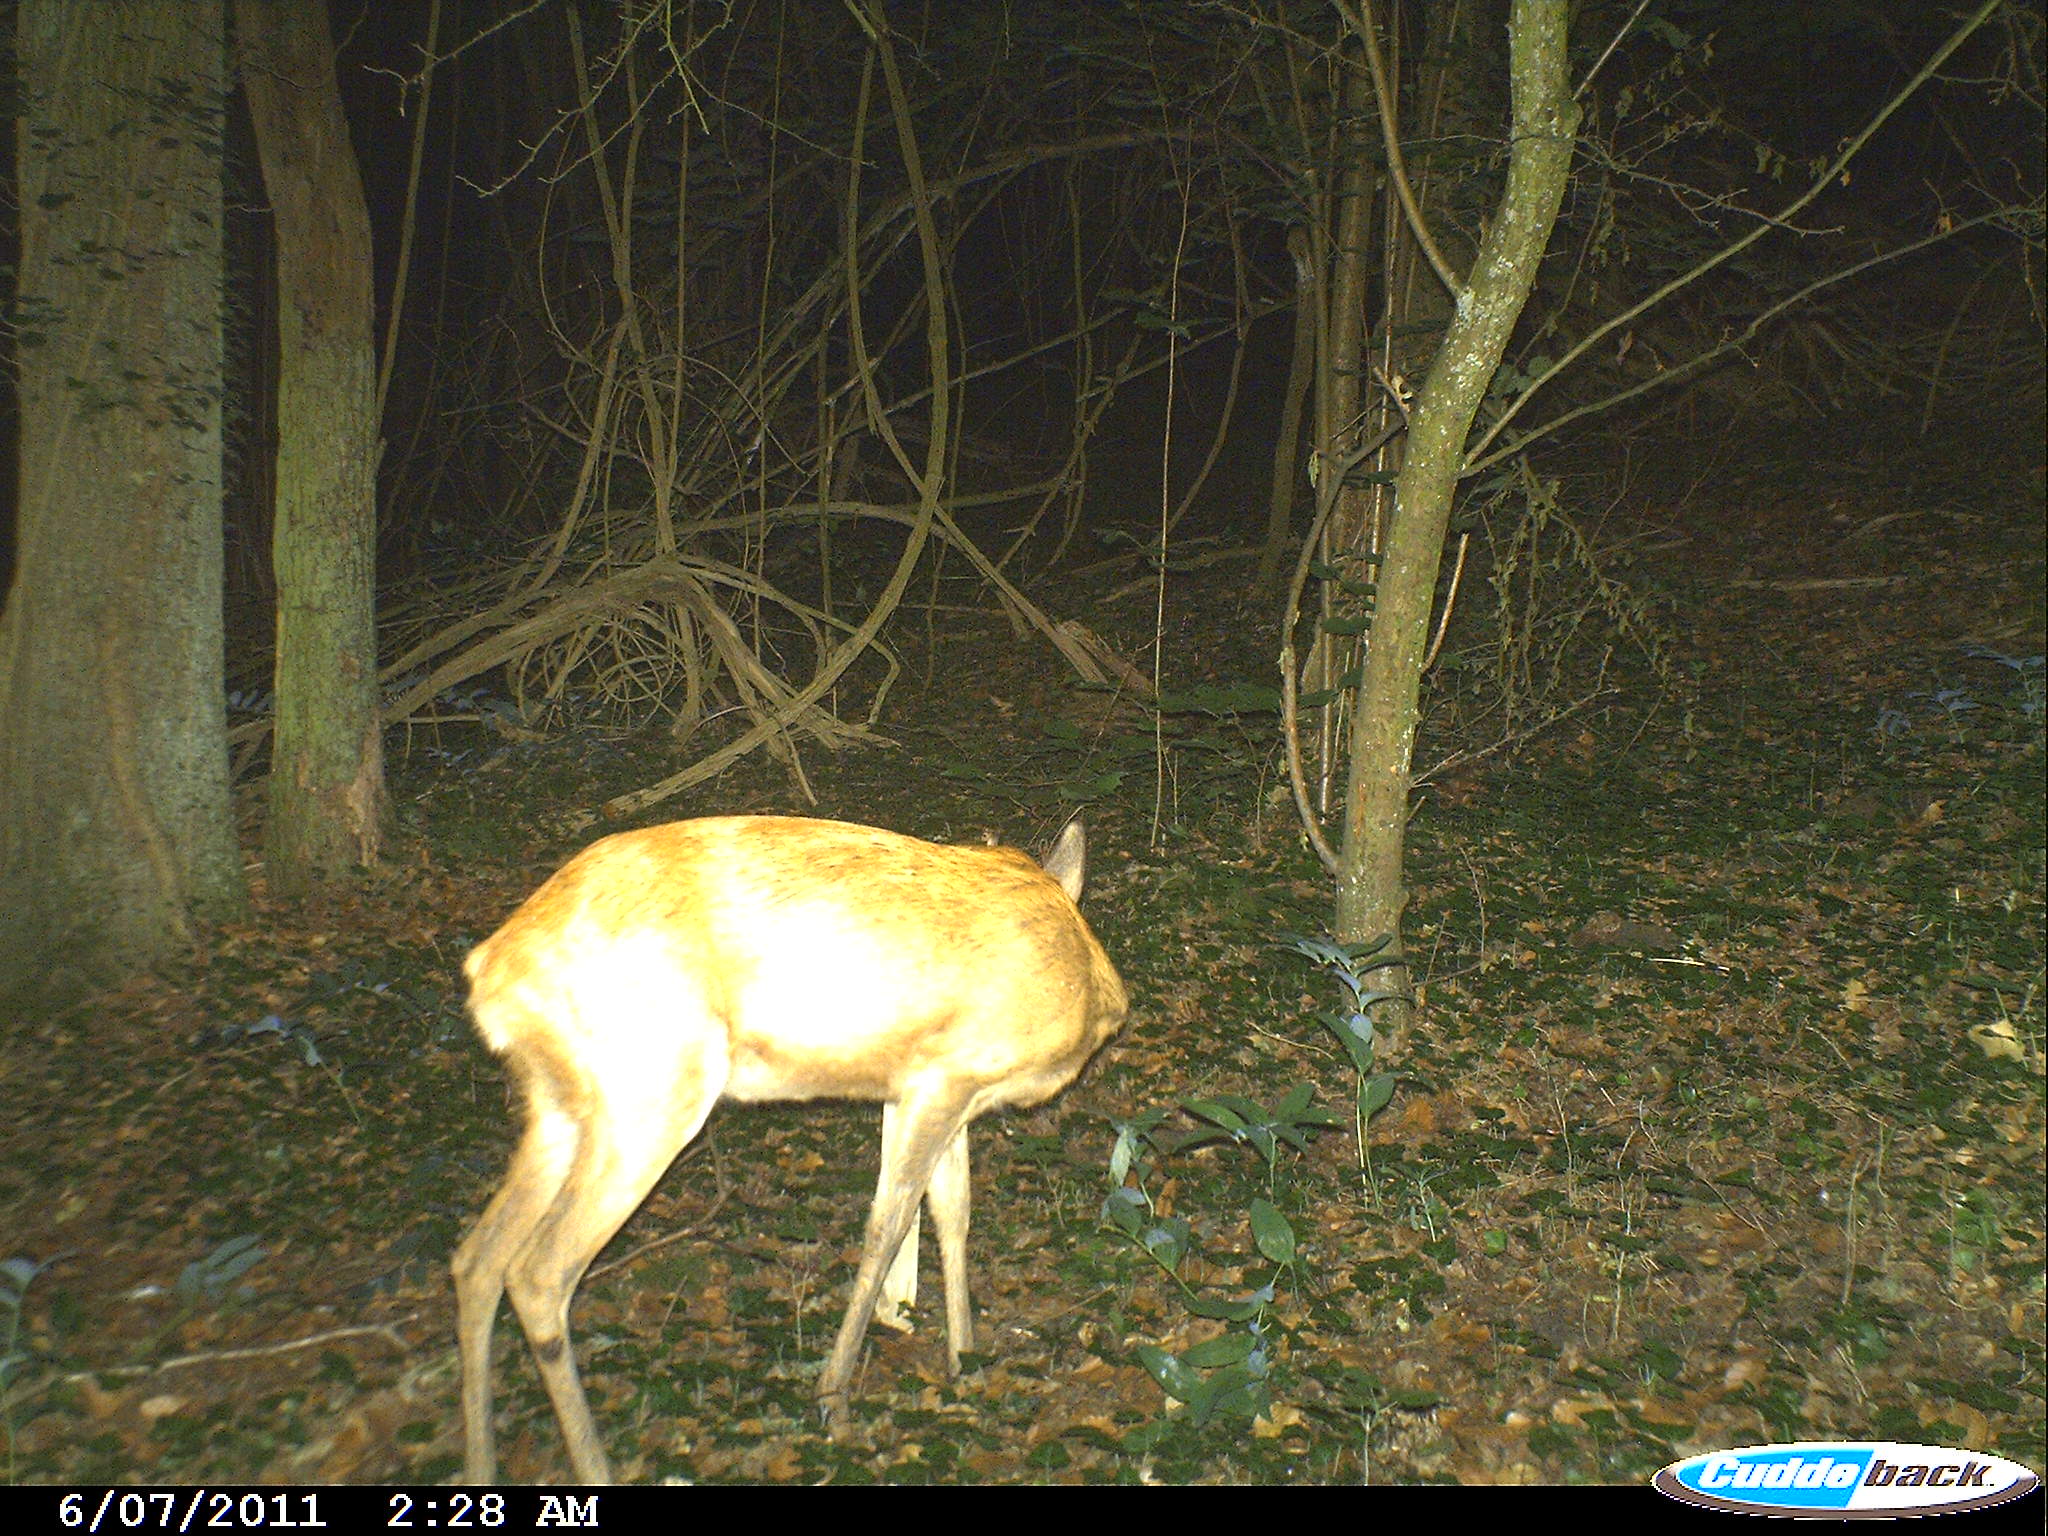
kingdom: Animalia
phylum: Chordata
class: Mammalia
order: Artiodactyla
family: Cervidae
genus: Capreolus
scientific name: Capreolus capreolus
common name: Western roe deer
